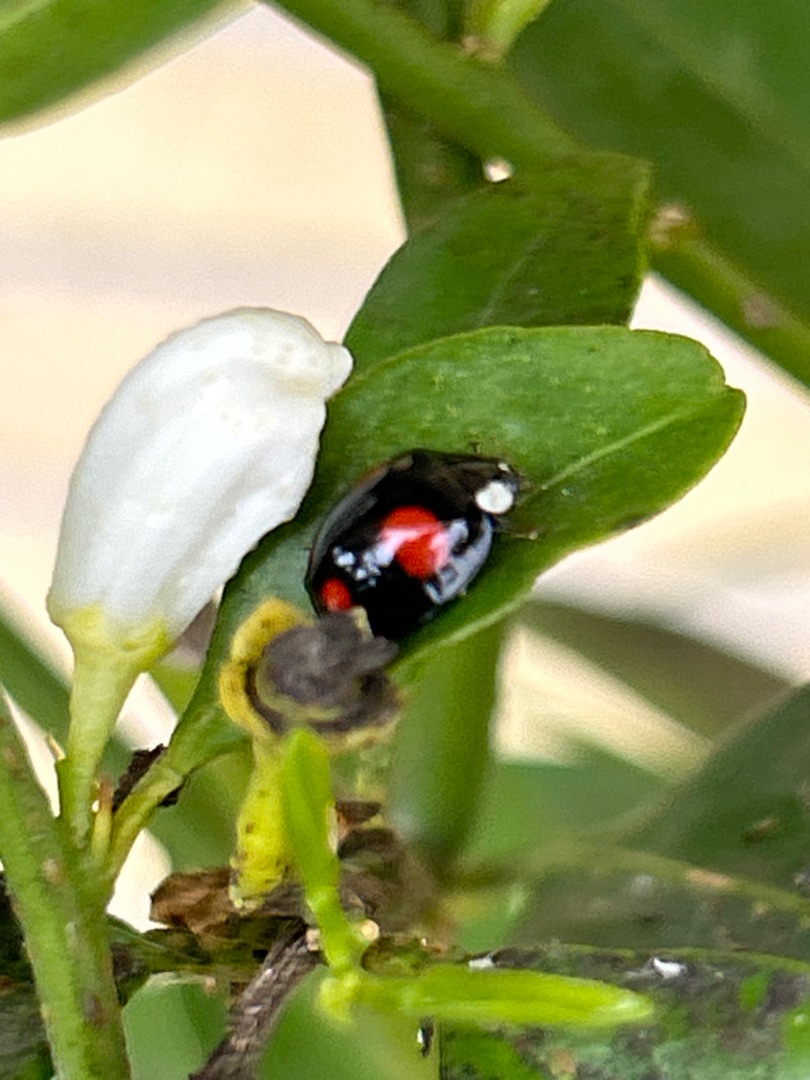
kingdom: Animalia
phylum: Arthropoda
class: Insecta
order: Coleoptera
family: Coccinellidae
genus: Harmonia
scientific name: Harmonia axyridis
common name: Harlekinmariehøne
